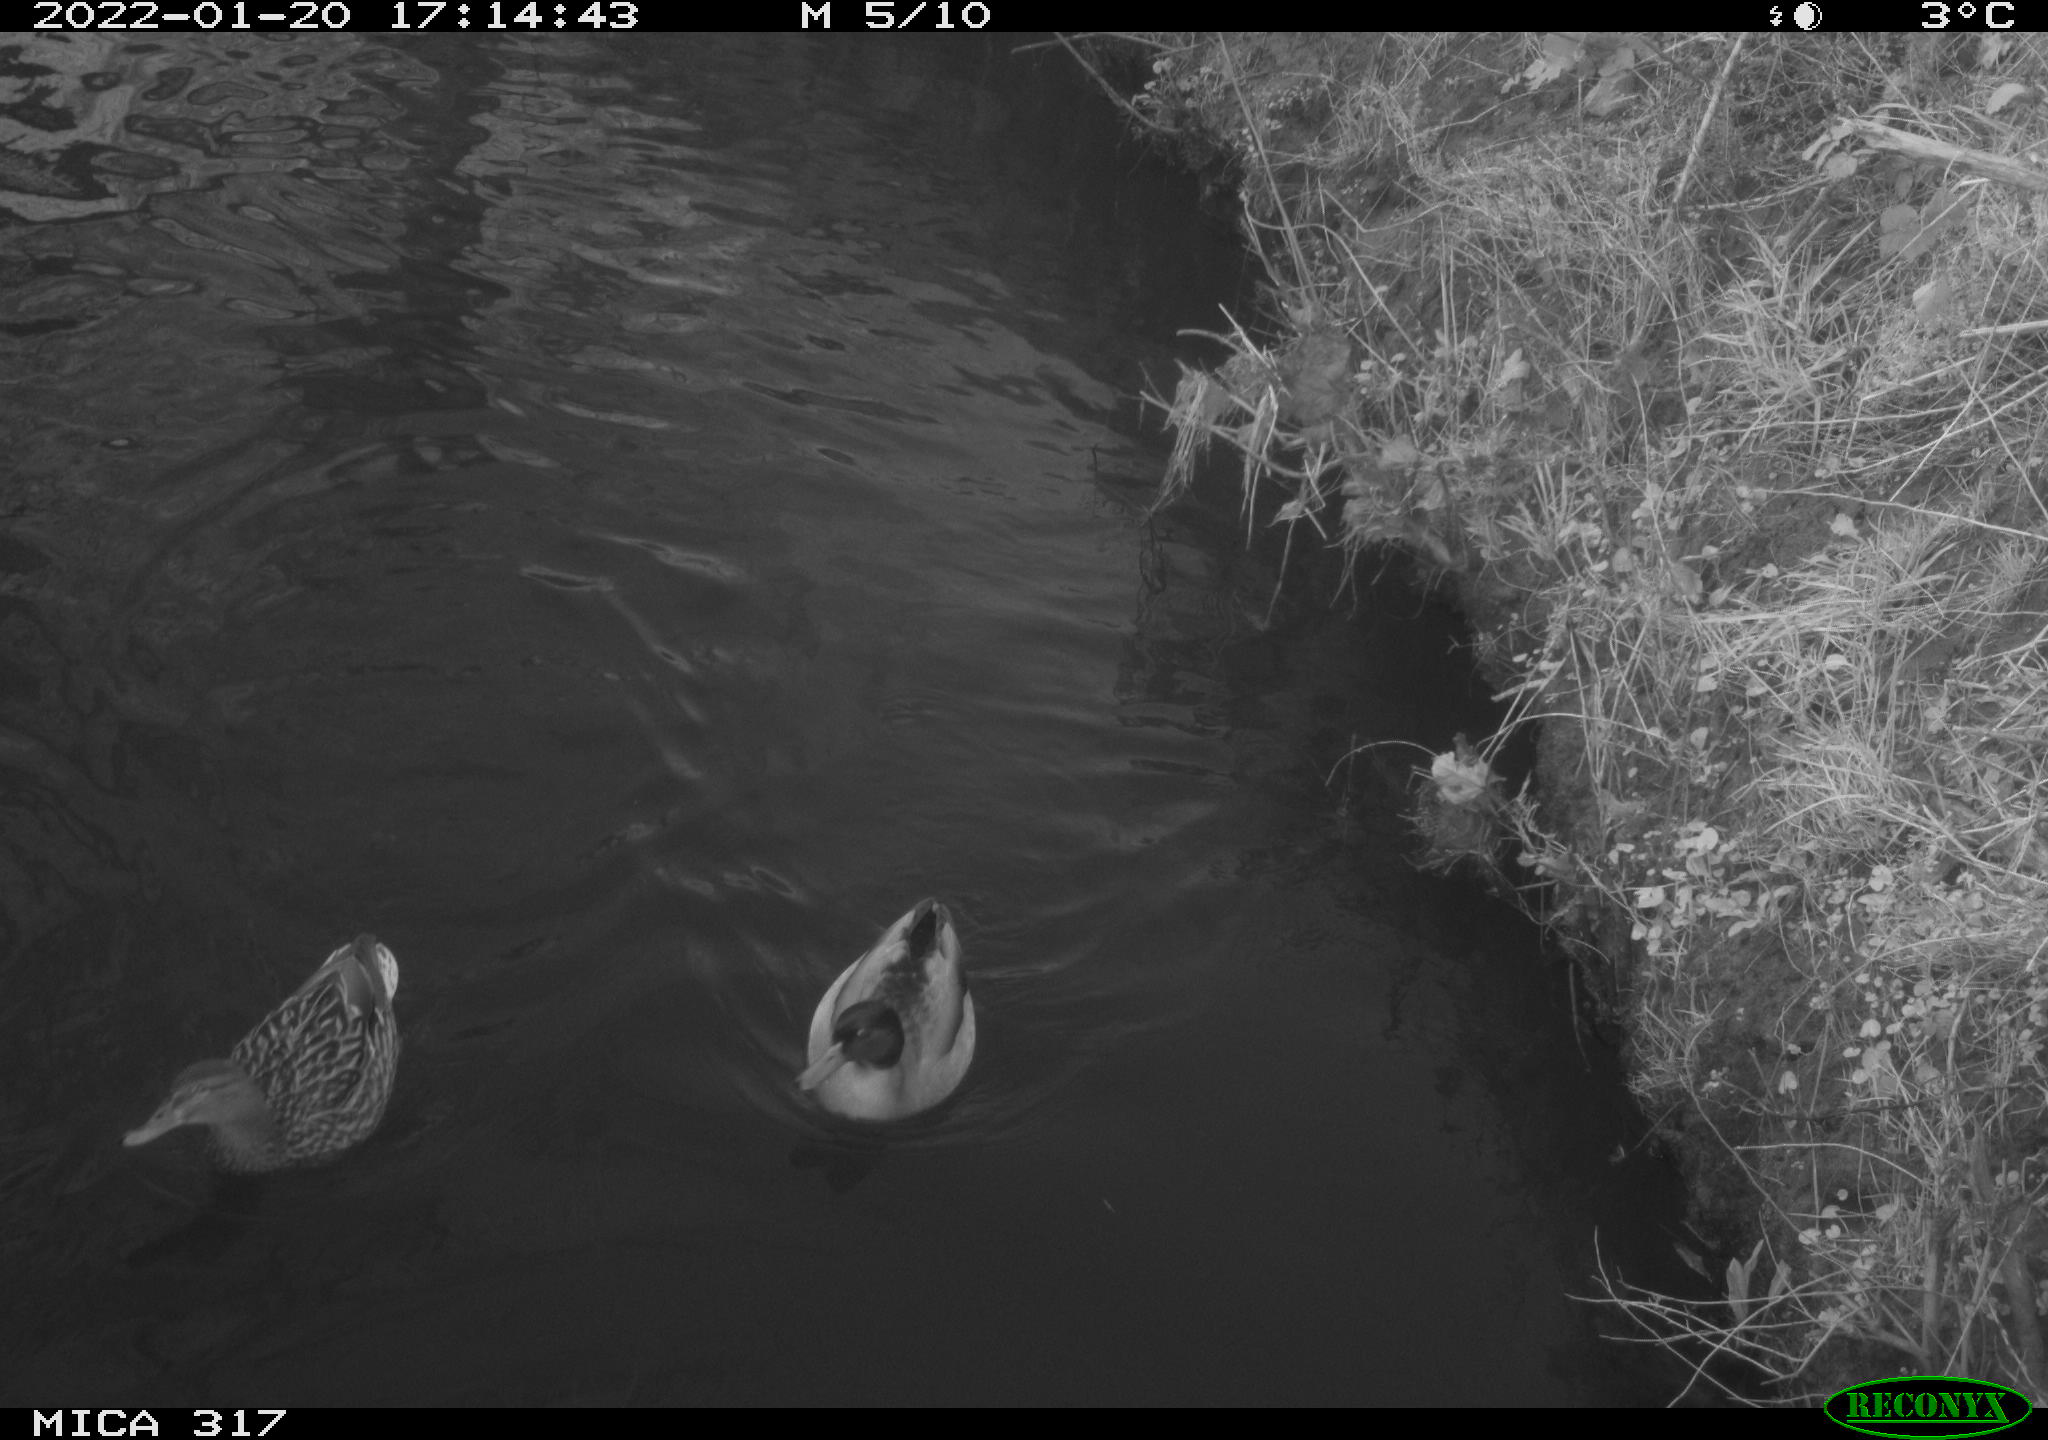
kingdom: Animalia
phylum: Chordata
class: Aves
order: Anseriformes
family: Anatidae
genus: Anas
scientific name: Anas platyrhynchos
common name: Mallard
